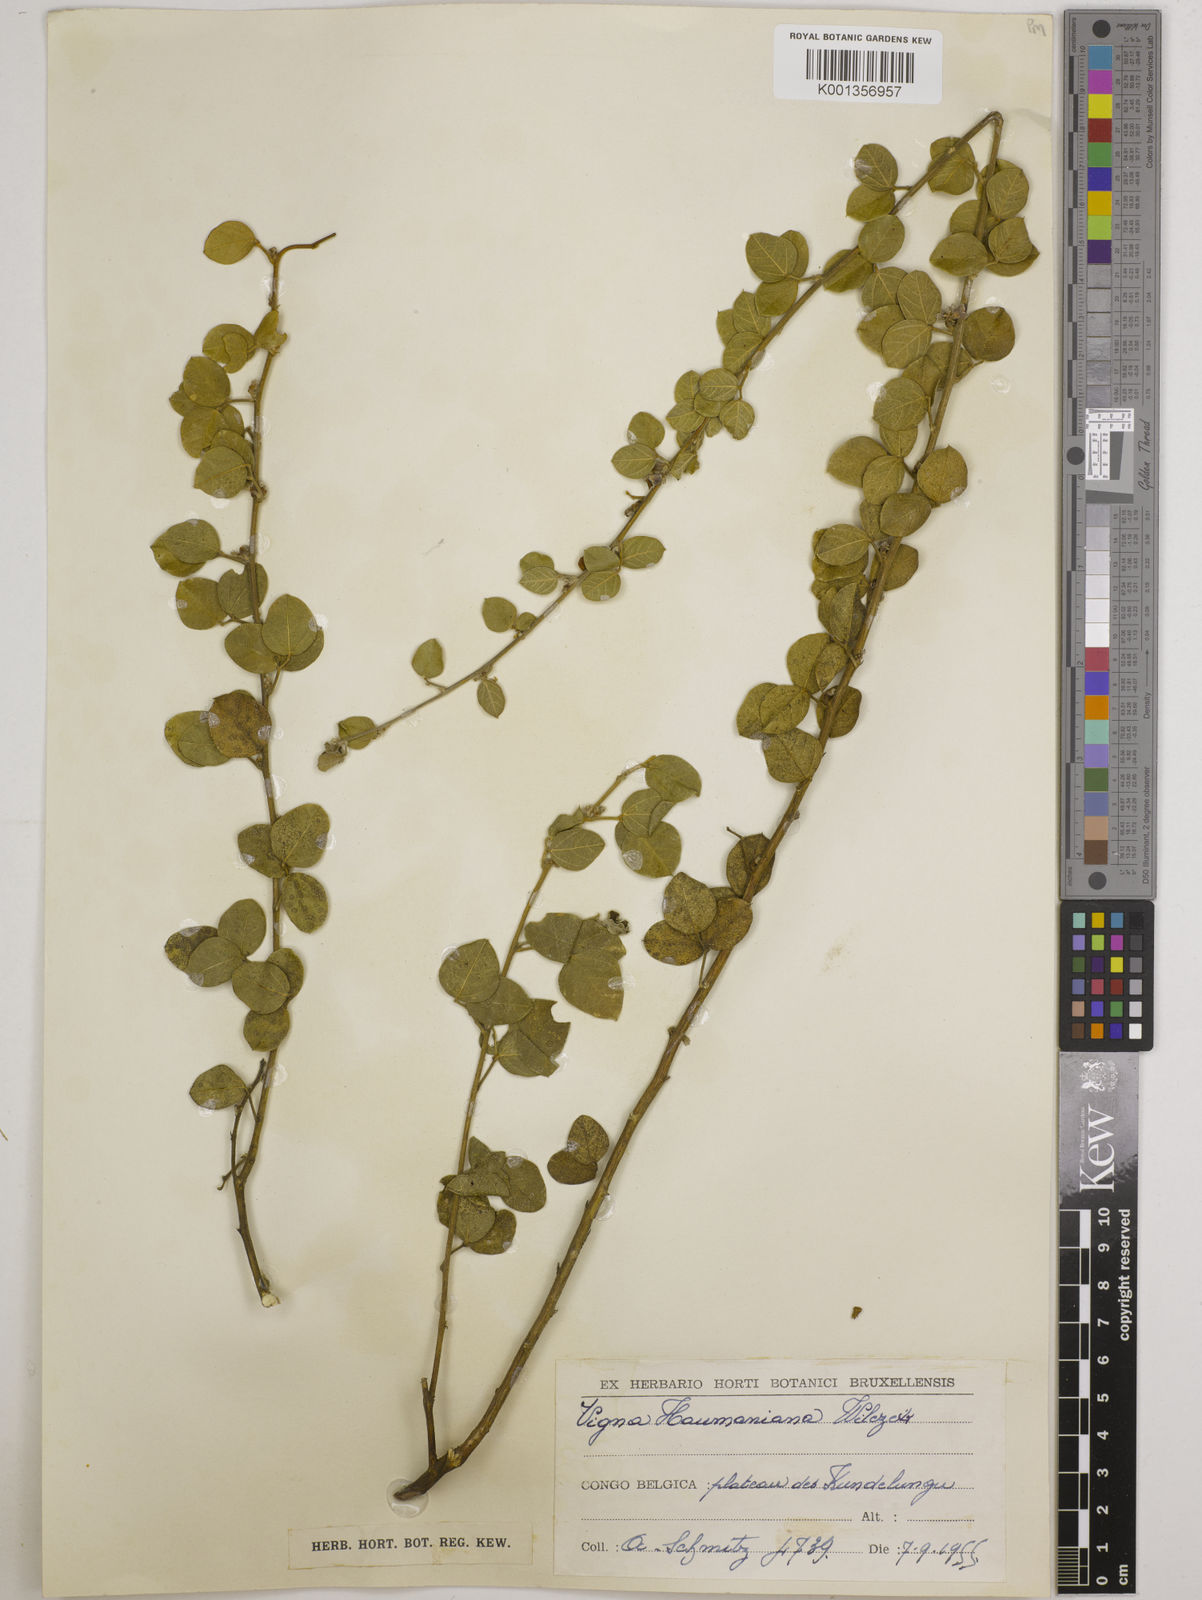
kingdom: Plantae
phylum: Tracheophyta
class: Magnoliopsida
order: Fabales
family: Fabaceae
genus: Vigna
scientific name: Vigna haumaniana
